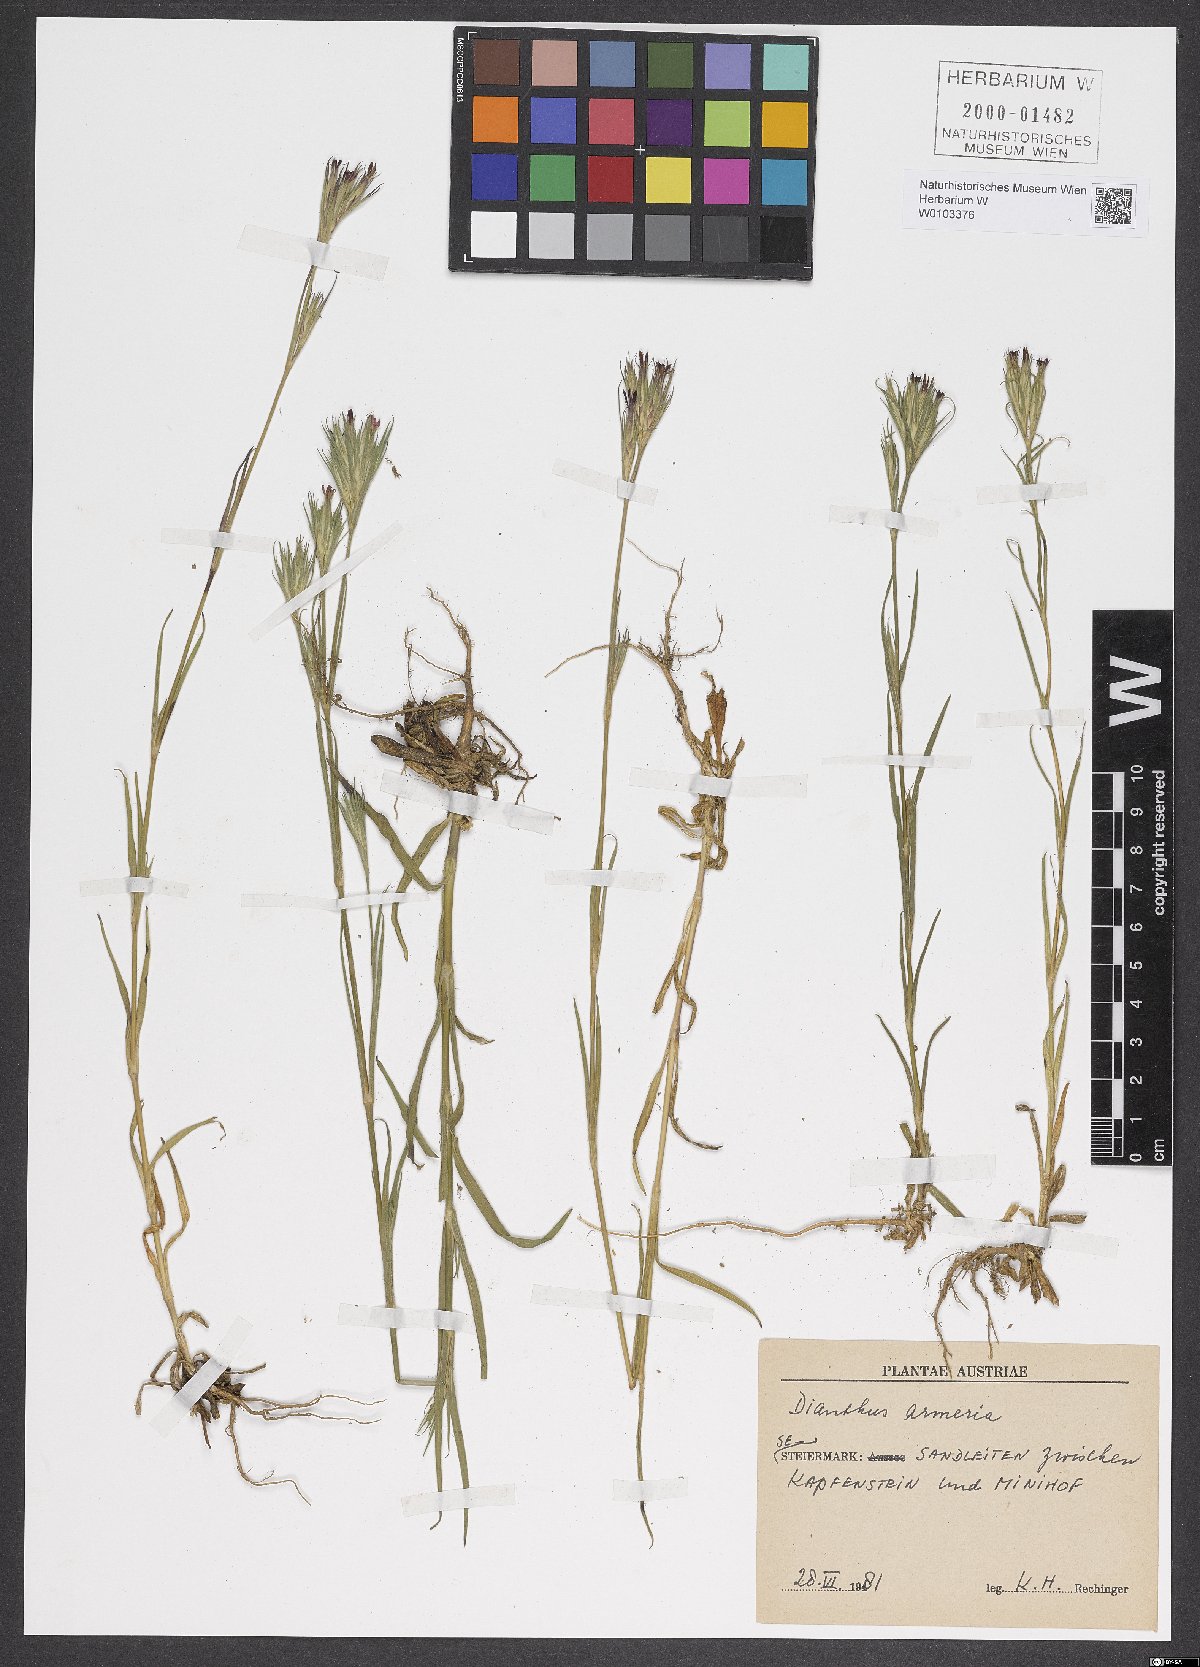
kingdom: Plantae
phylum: Tracheophyta
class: Magnoliopsida
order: Caryophyllales
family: Caryophyllaceae
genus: Dianthus
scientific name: Dianthus armeria
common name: Deptford pink
